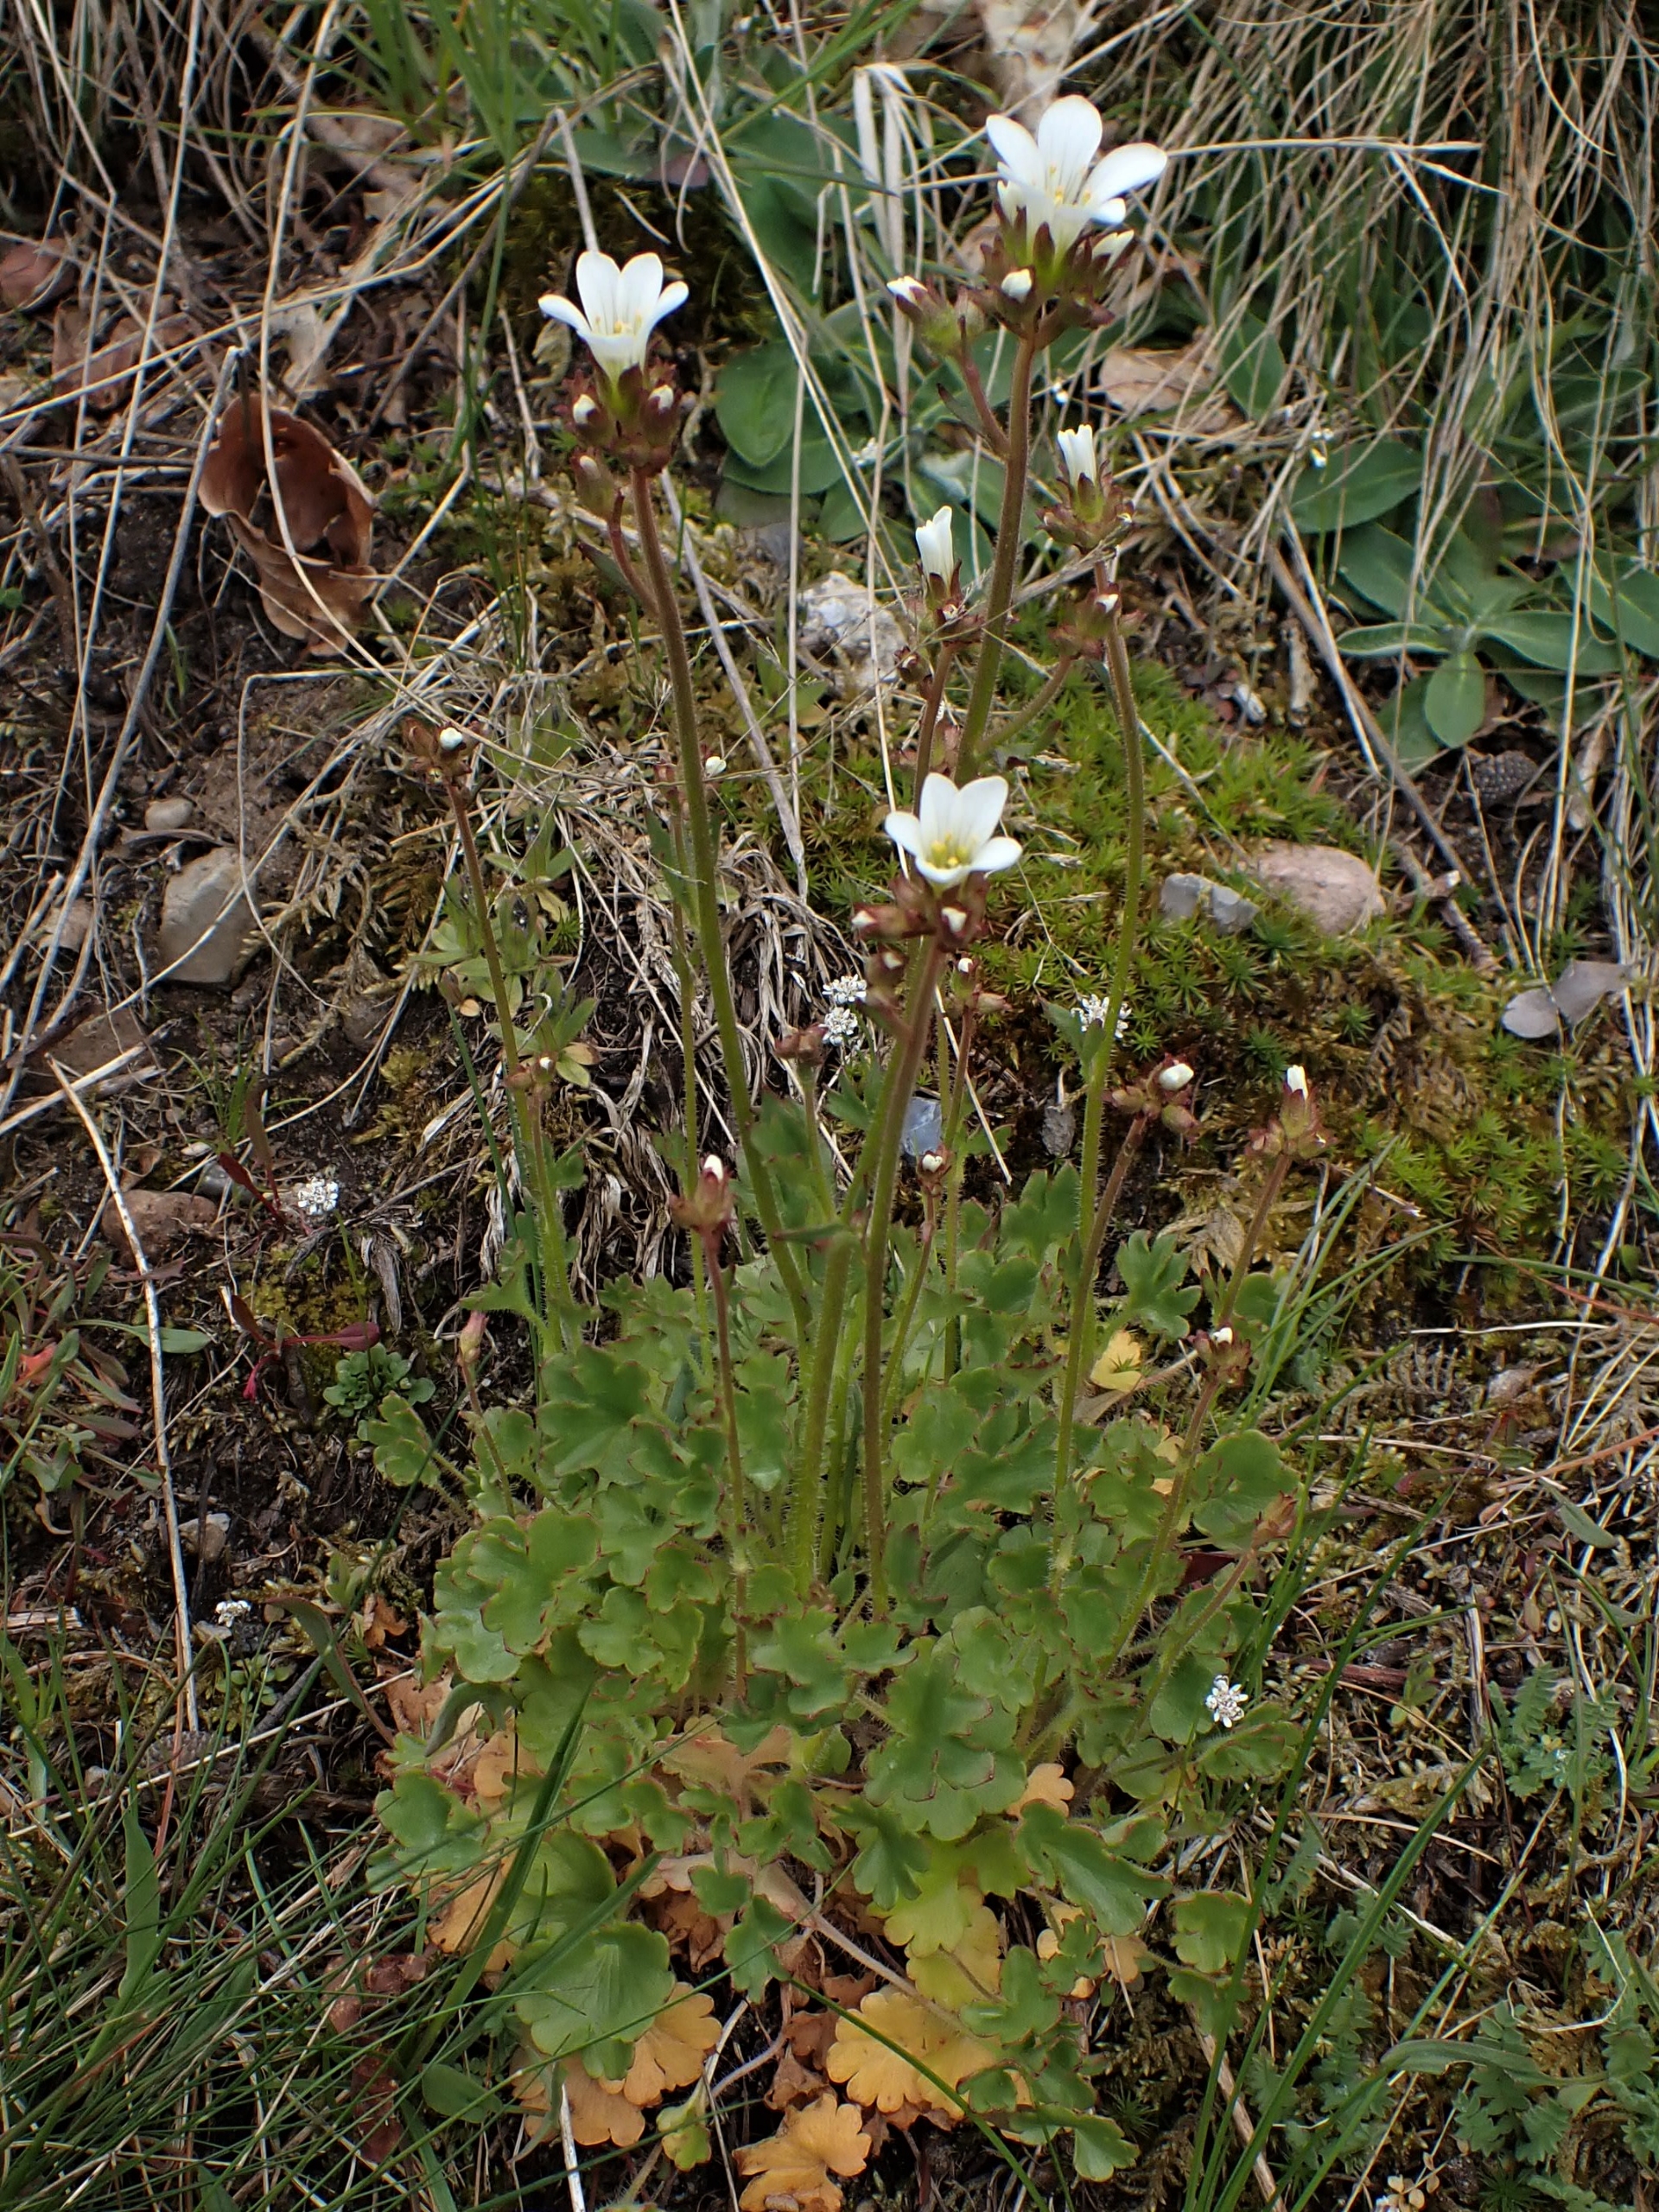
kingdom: Plantae
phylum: Tracheophyta
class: Magnoliopsida
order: Saxifragales
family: Saxifragaceae
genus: Saxifraga
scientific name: Saxifraga granulata
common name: Kornet stenbræk
